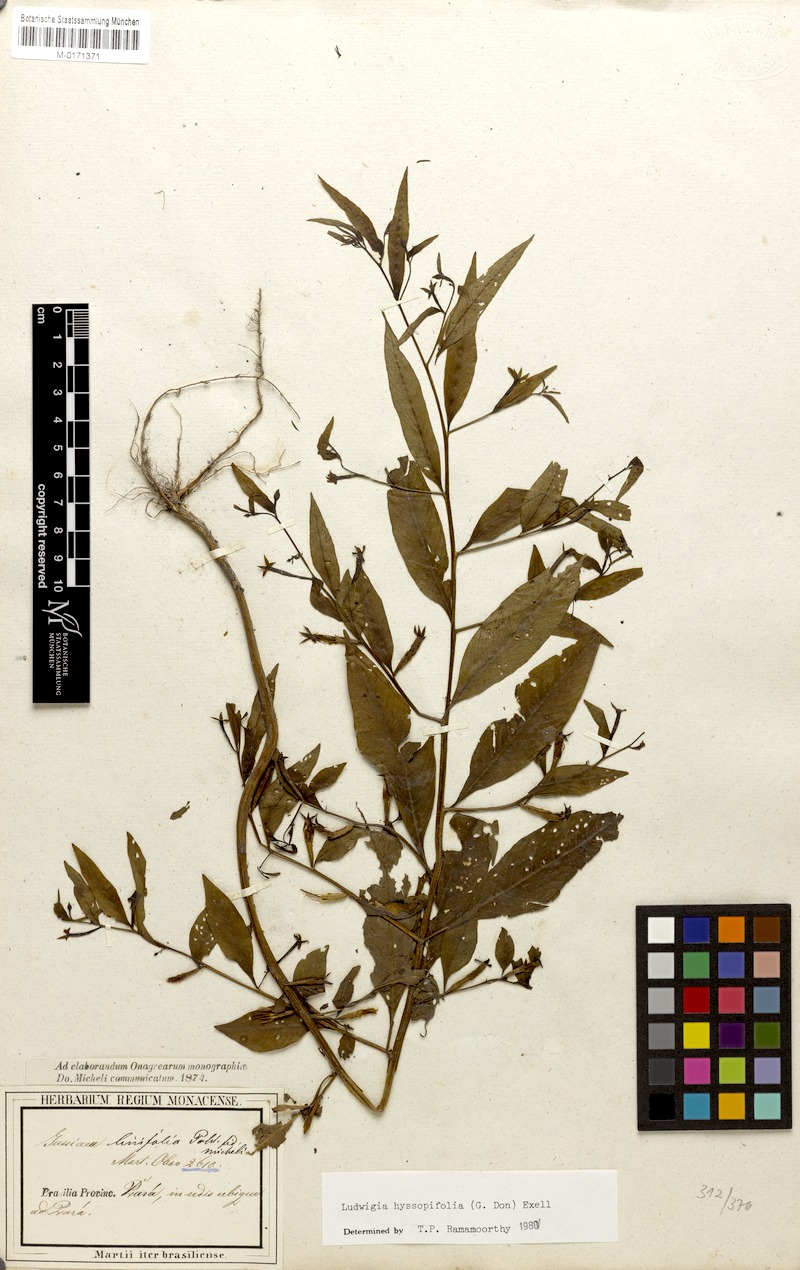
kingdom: Plantae
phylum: Tracheophyta
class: Magnoliopsida
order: Myrtales
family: Onagraceae
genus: Ludwigia
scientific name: Ludwigia hyssopifolia
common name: Linear leaf water primrose
